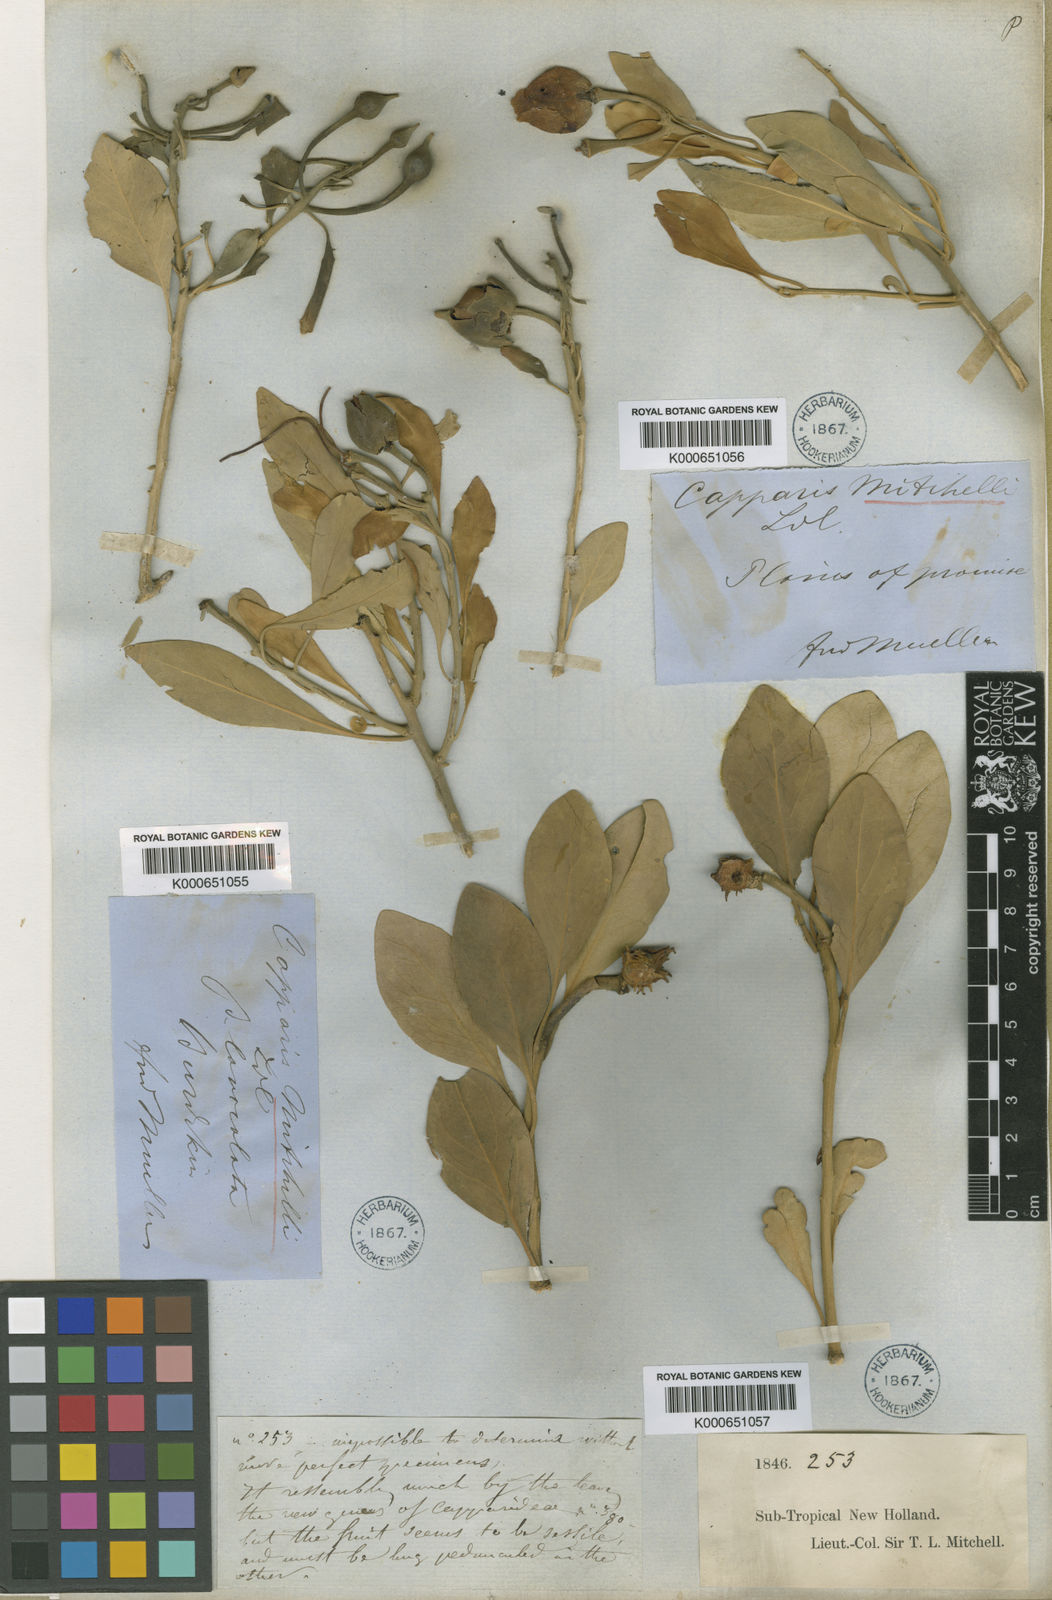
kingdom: Plantae
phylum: Tracheophyta
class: Magnoliopsida
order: Brassicales
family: Capparaceae
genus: Capparis
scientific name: Capparis mitchellii
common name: Desert caper
